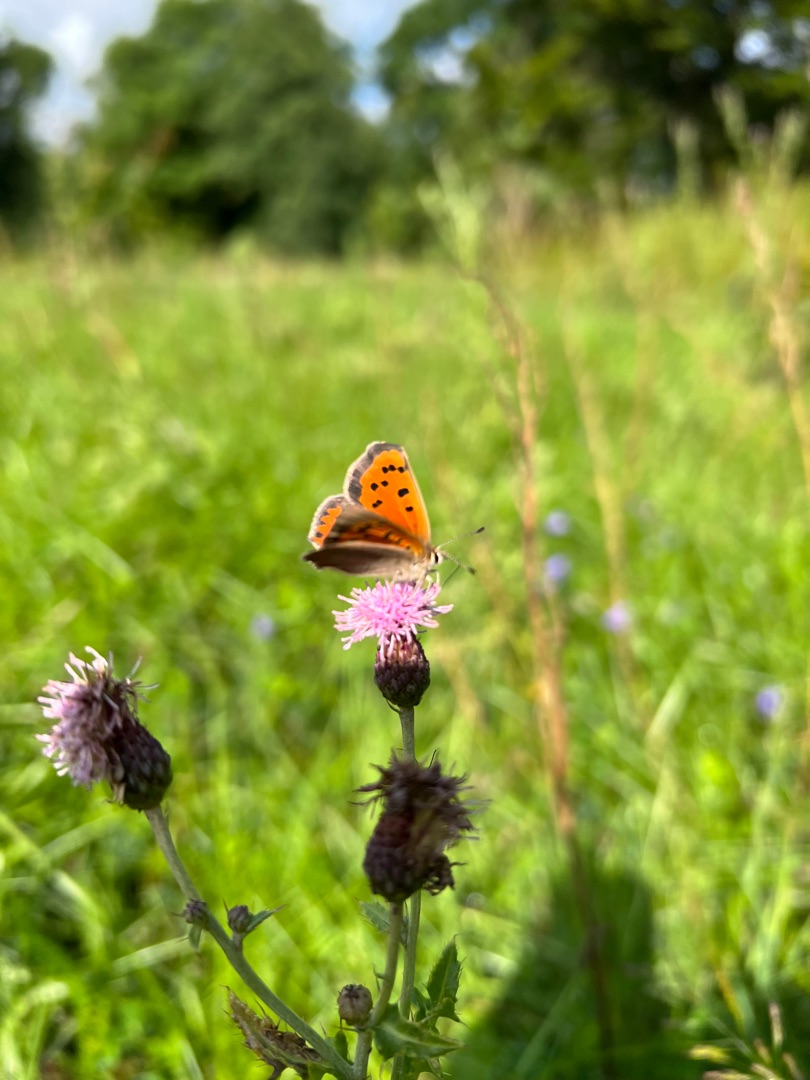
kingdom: Animalia
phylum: Arthropoda
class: Insecta
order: Lepidoptera
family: Lycaenidae
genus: Lycaena
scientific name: Lycaena phlaeas
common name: Lille ildfugl
